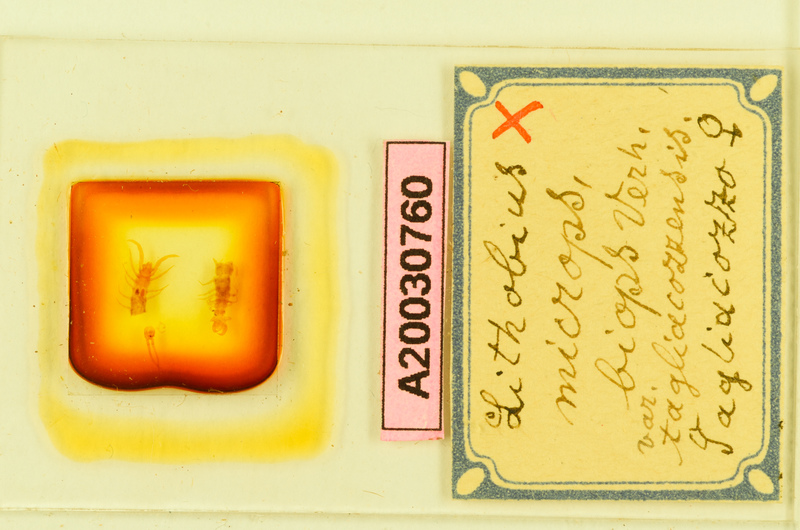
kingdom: Animalia
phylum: Arthropoda
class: Chilopoda
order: Lithobiomorpha
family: Lithobiidae
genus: Lithobius
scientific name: Lithobius micropodus
